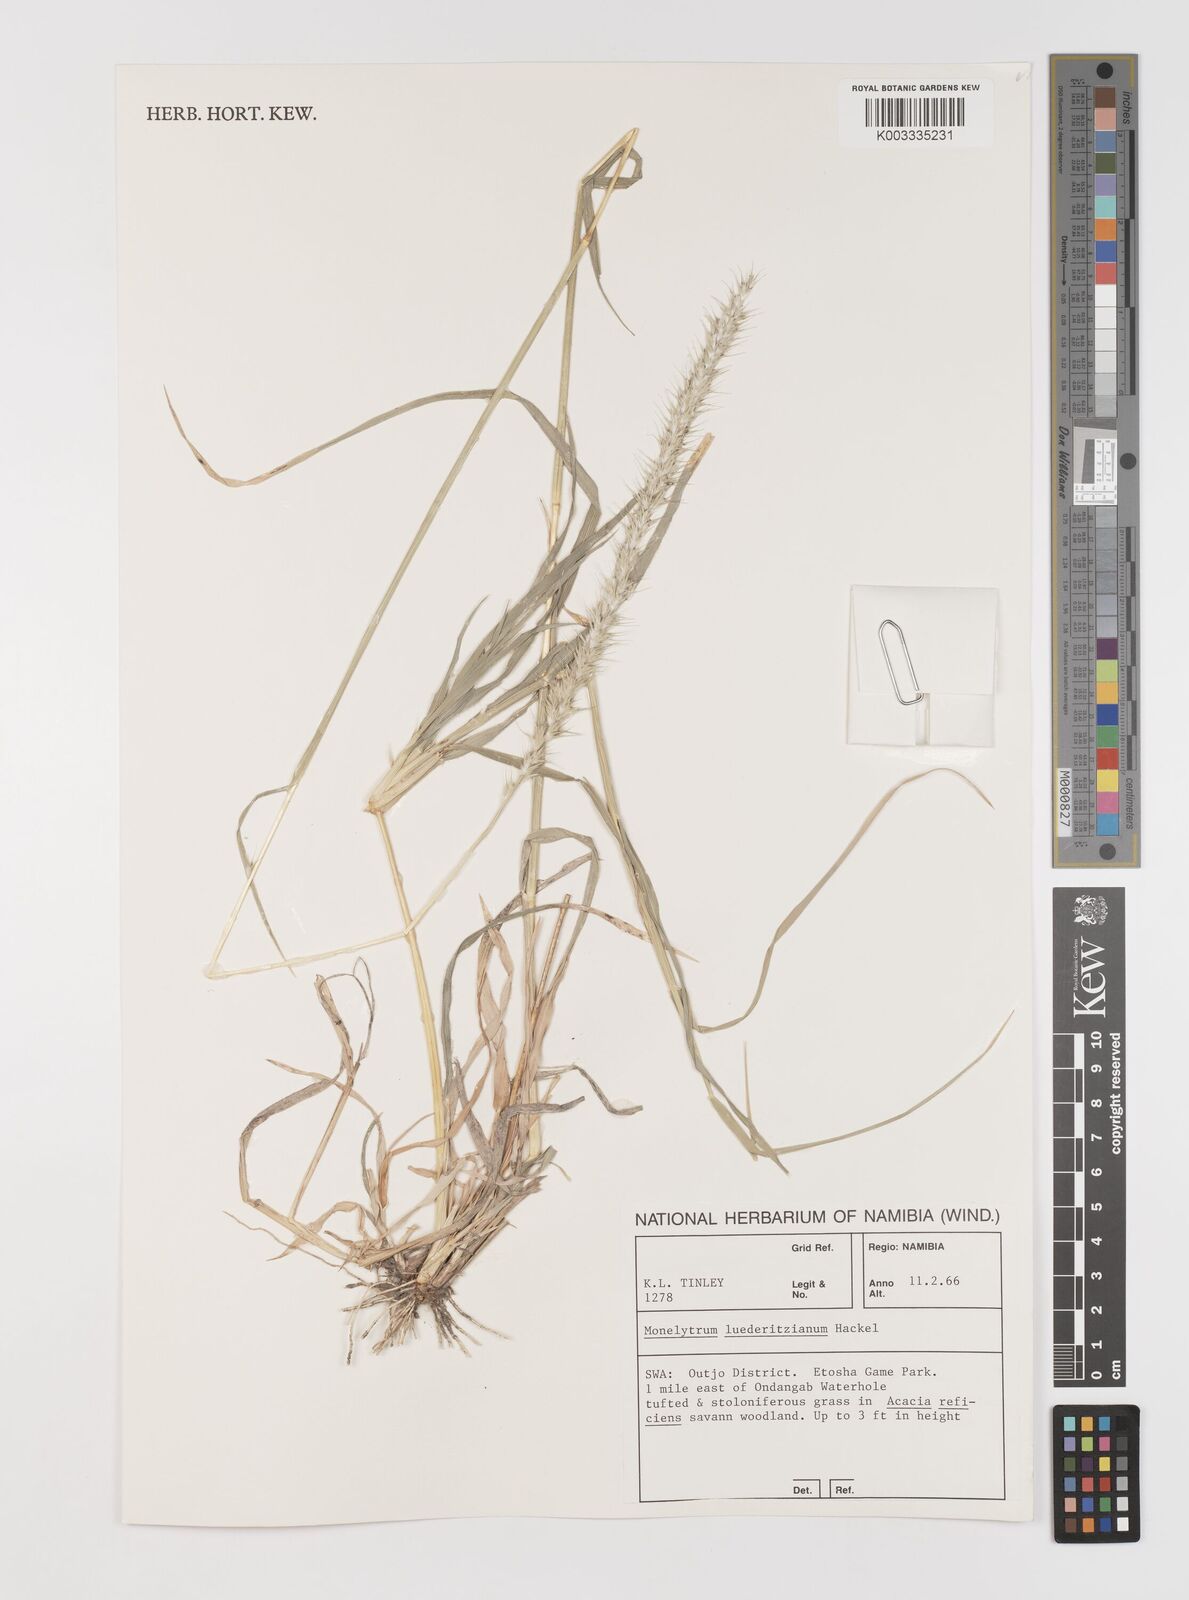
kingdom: Plantae
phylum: Tracheophyta
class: Liliopsida
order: Poales
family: Poaceae
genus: Monelytrum
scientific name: Monelytrum luederitzianum
